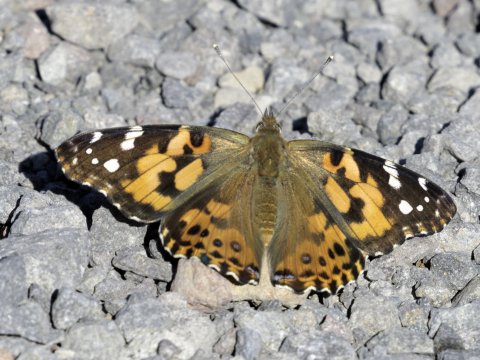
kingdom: Animalia
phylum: Arthropoda
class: Insecta
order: Lepidoptera
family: Nymphalidae
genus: Vanessa
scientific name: Vanessa cardui
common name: Painted Lady
